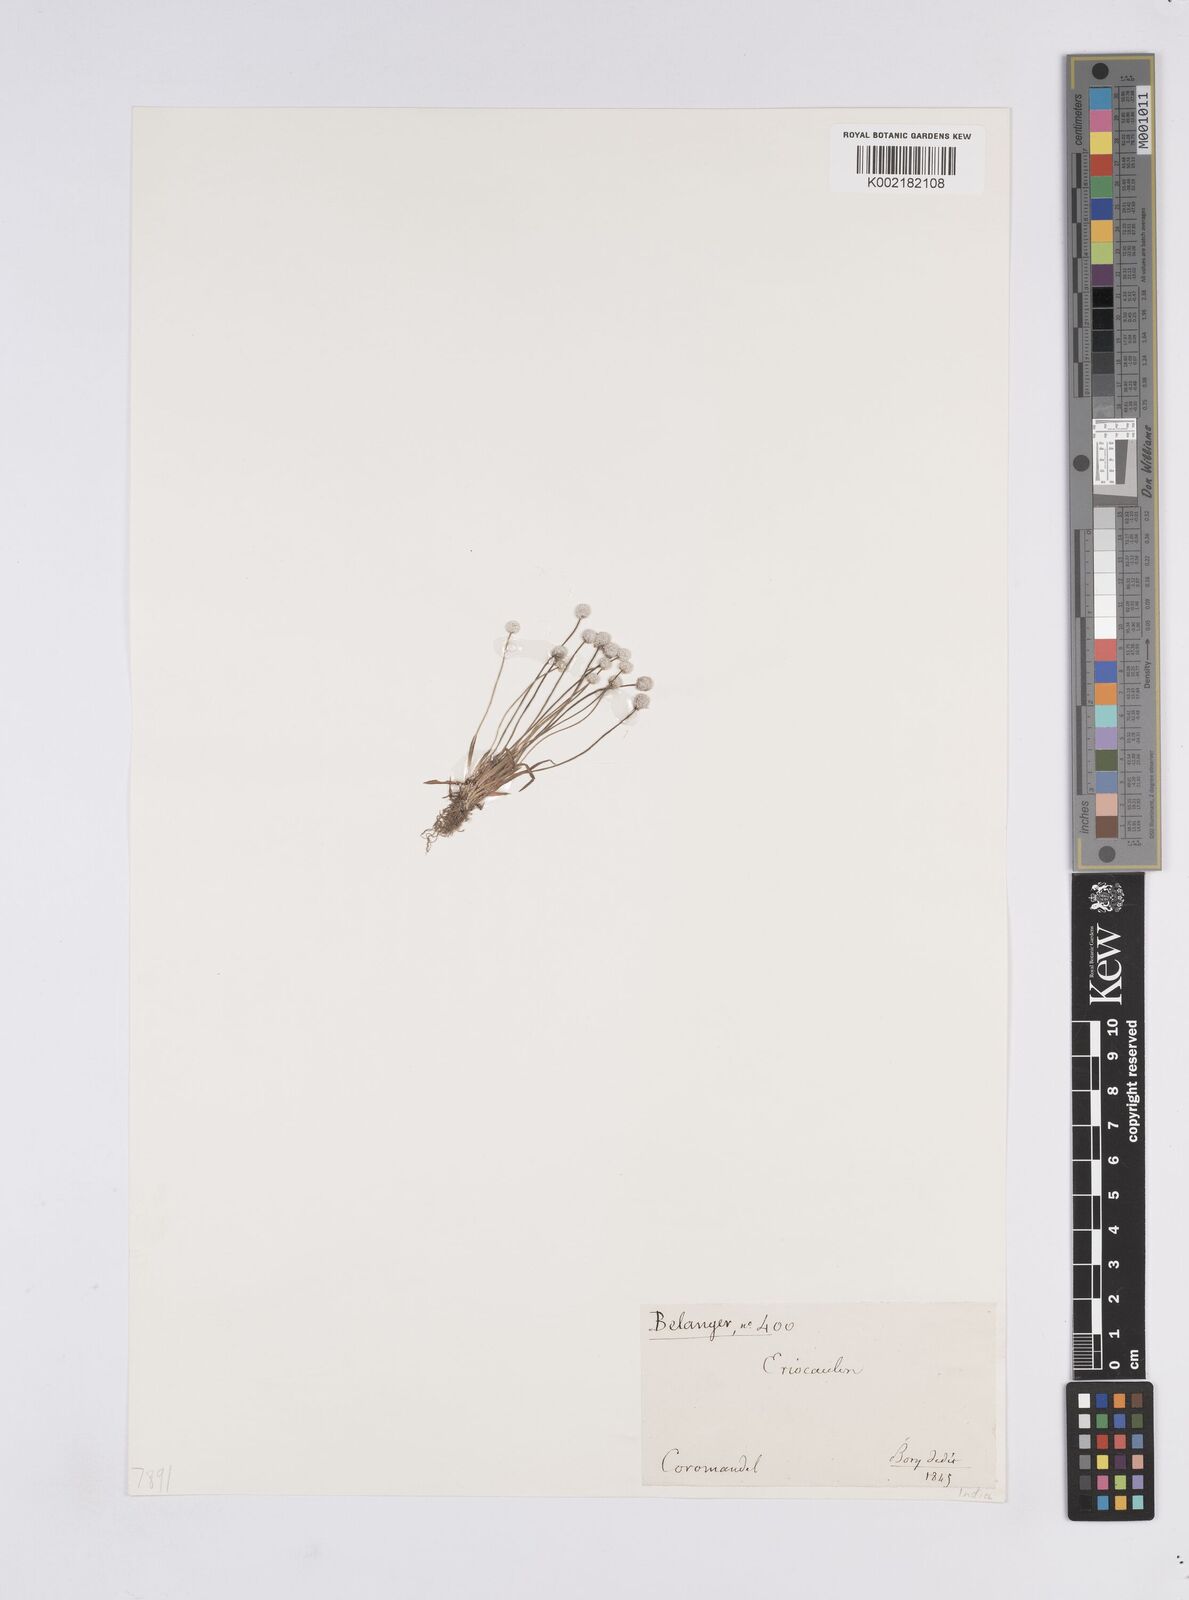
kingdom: Plantae
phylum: Tracheophyta
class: Liliopsida
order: Poales
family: Eriocaulaceae
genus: Eriocaulon
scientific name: Eriocaulon
